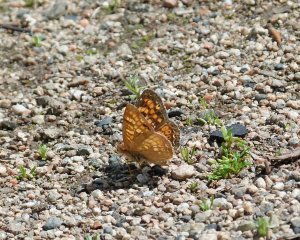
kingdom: Animalia
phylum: Arthropoda
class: Insecta
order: Lepidoptera
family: Nymphalidae
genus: Phyciodes
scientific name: Phyciodes tharos
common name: Field Crescent
